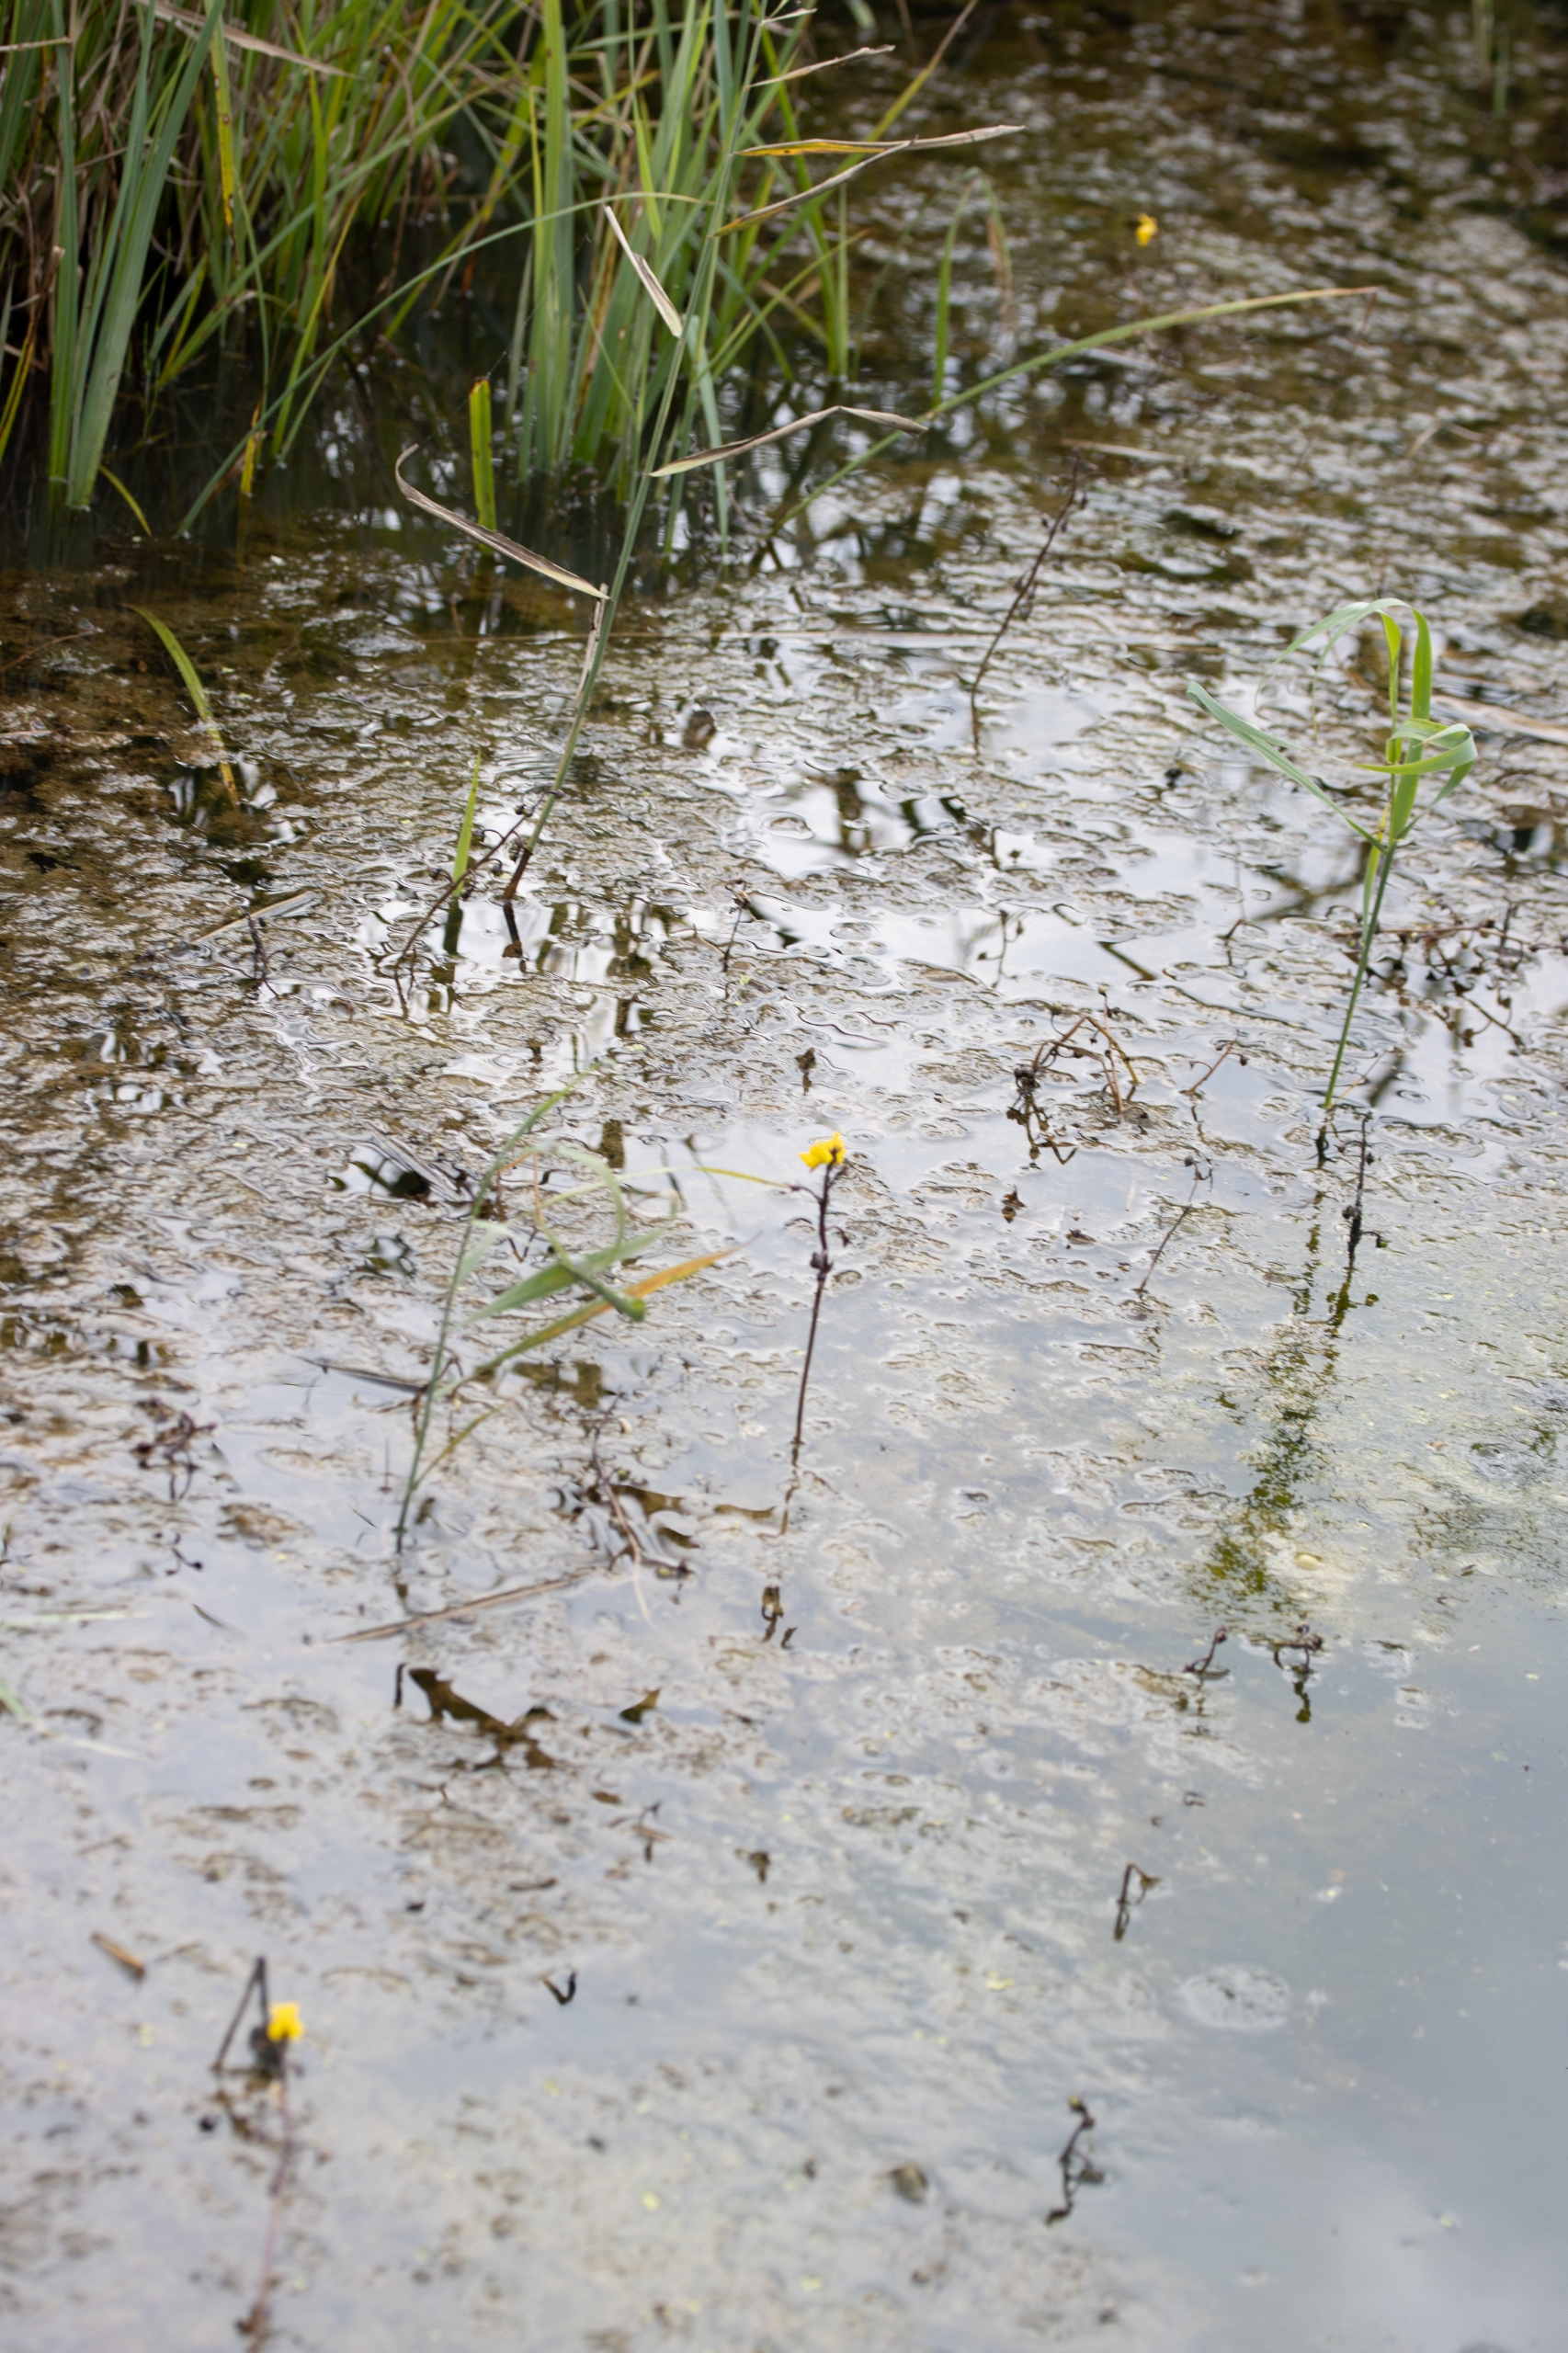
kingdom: Plantae
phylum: Tracheophyta
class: Magnoliopsida
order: Lamiales
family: Lentibulariaceae
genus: Utricularia
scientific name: Utricularia vulgaris
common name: Almindelig blærerod
